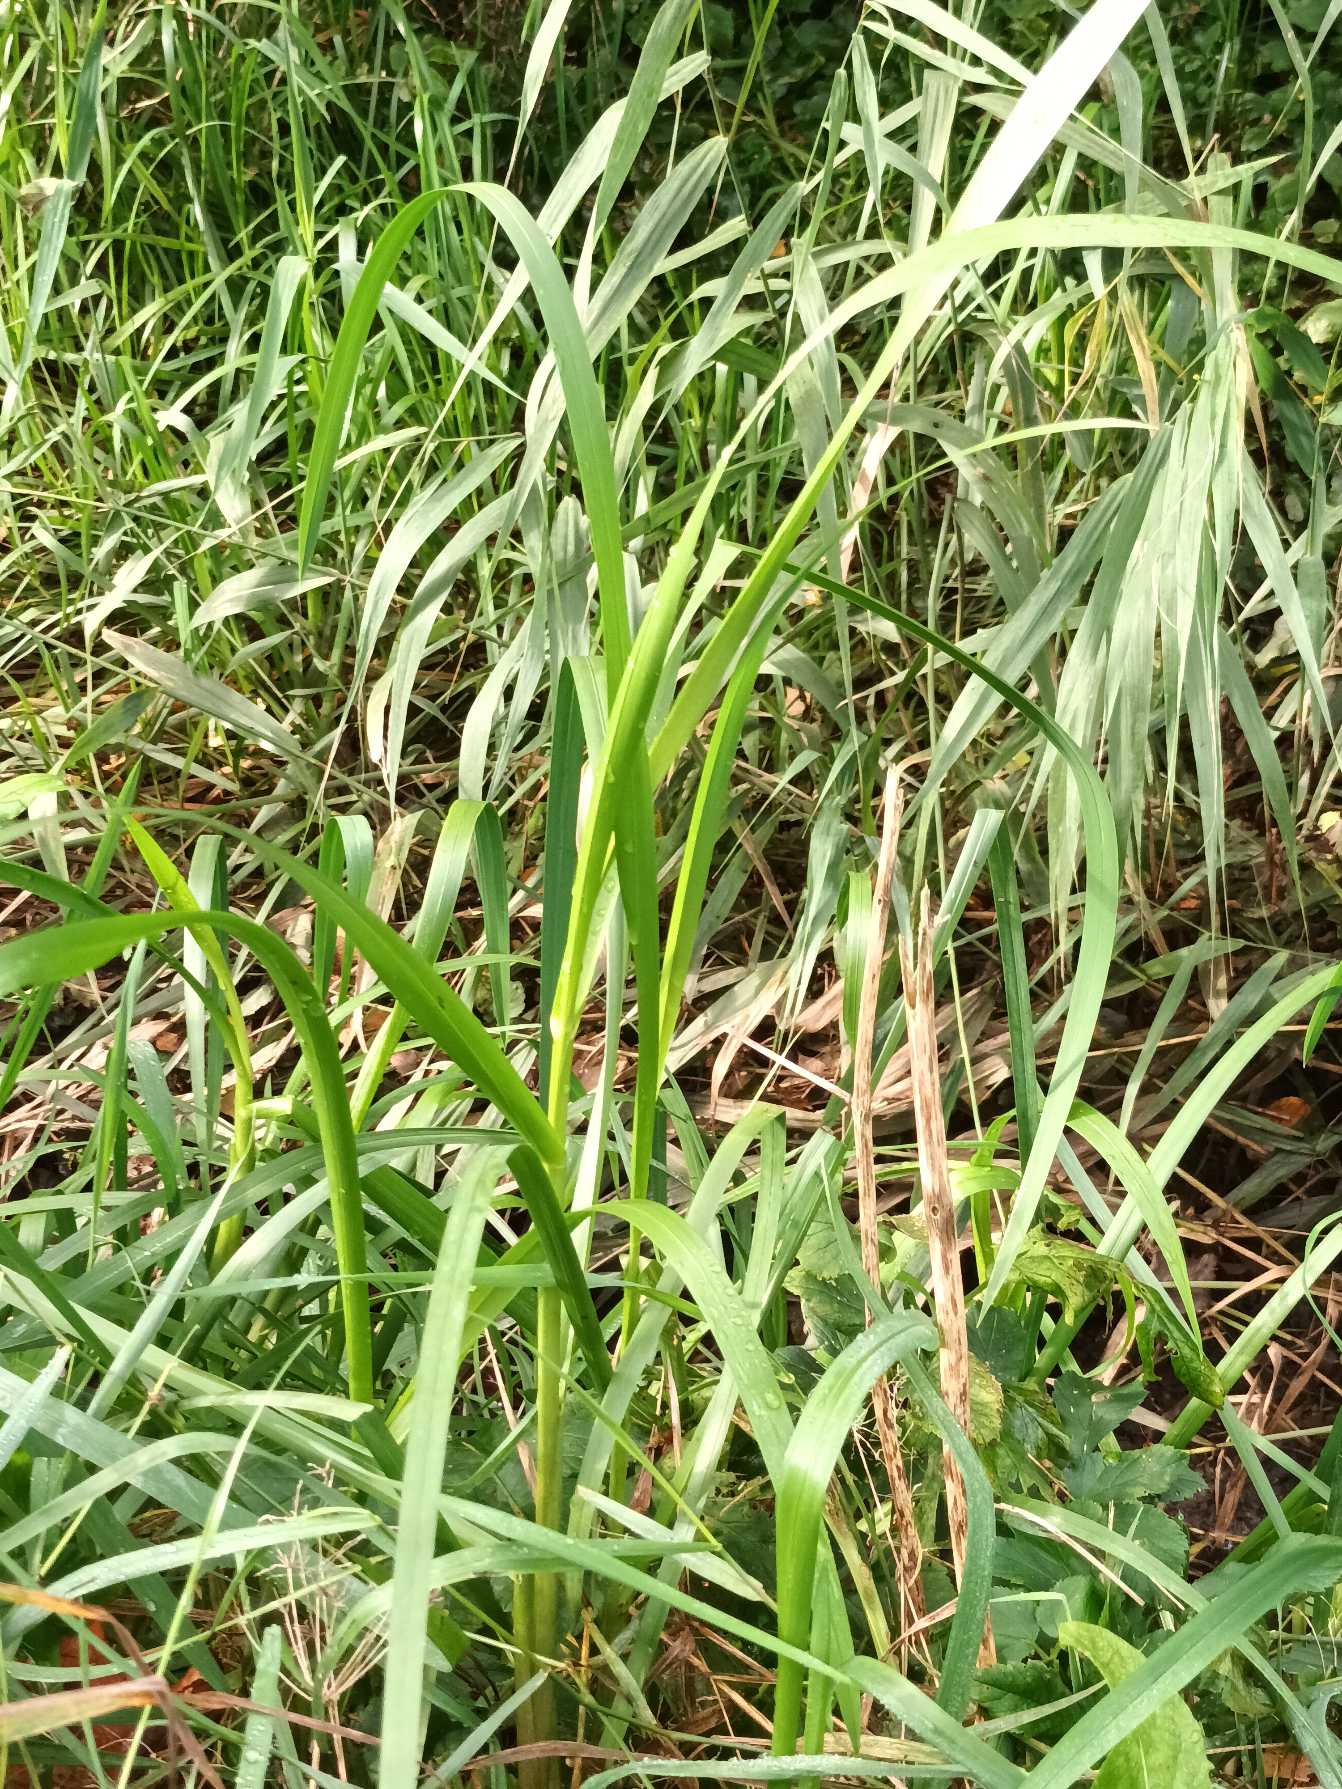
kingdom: Plantae
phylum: Tracheophyta
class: Liliopsida
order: Poales
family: Poaceae
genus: Glyceria
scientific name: Glyceria maxima
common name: Høj sødgræs
